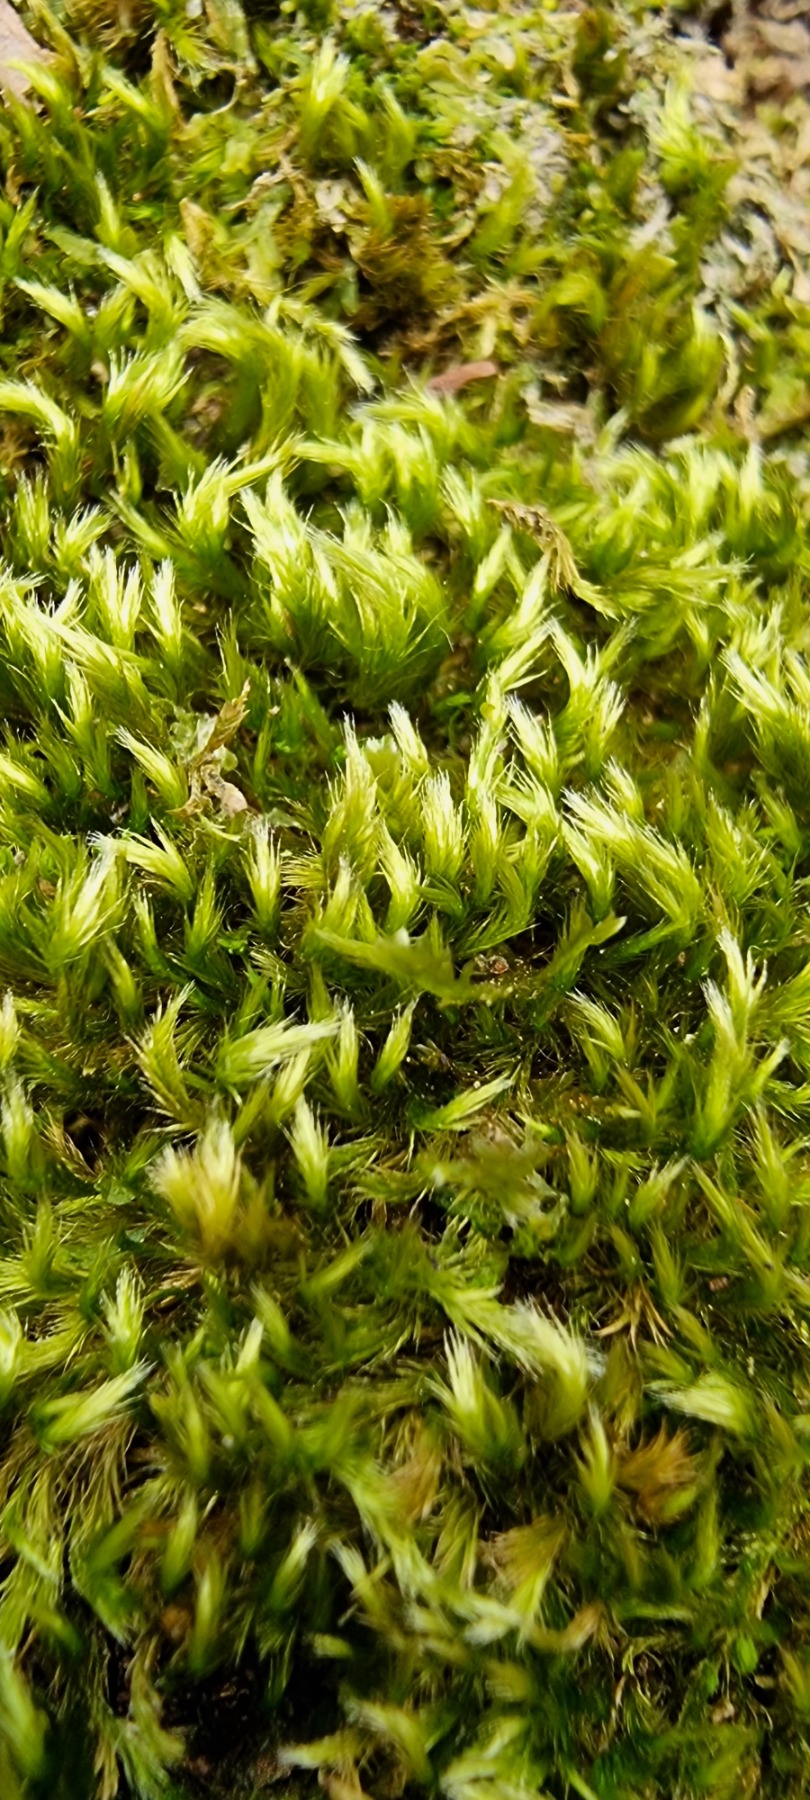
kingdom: Plantae
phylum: Bryophyta
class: Bryopsida
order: Hypnales
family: Brachytheciaceae
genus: Homalothecium
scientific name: Homalothecium sericeum
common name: Krybende silkemos
